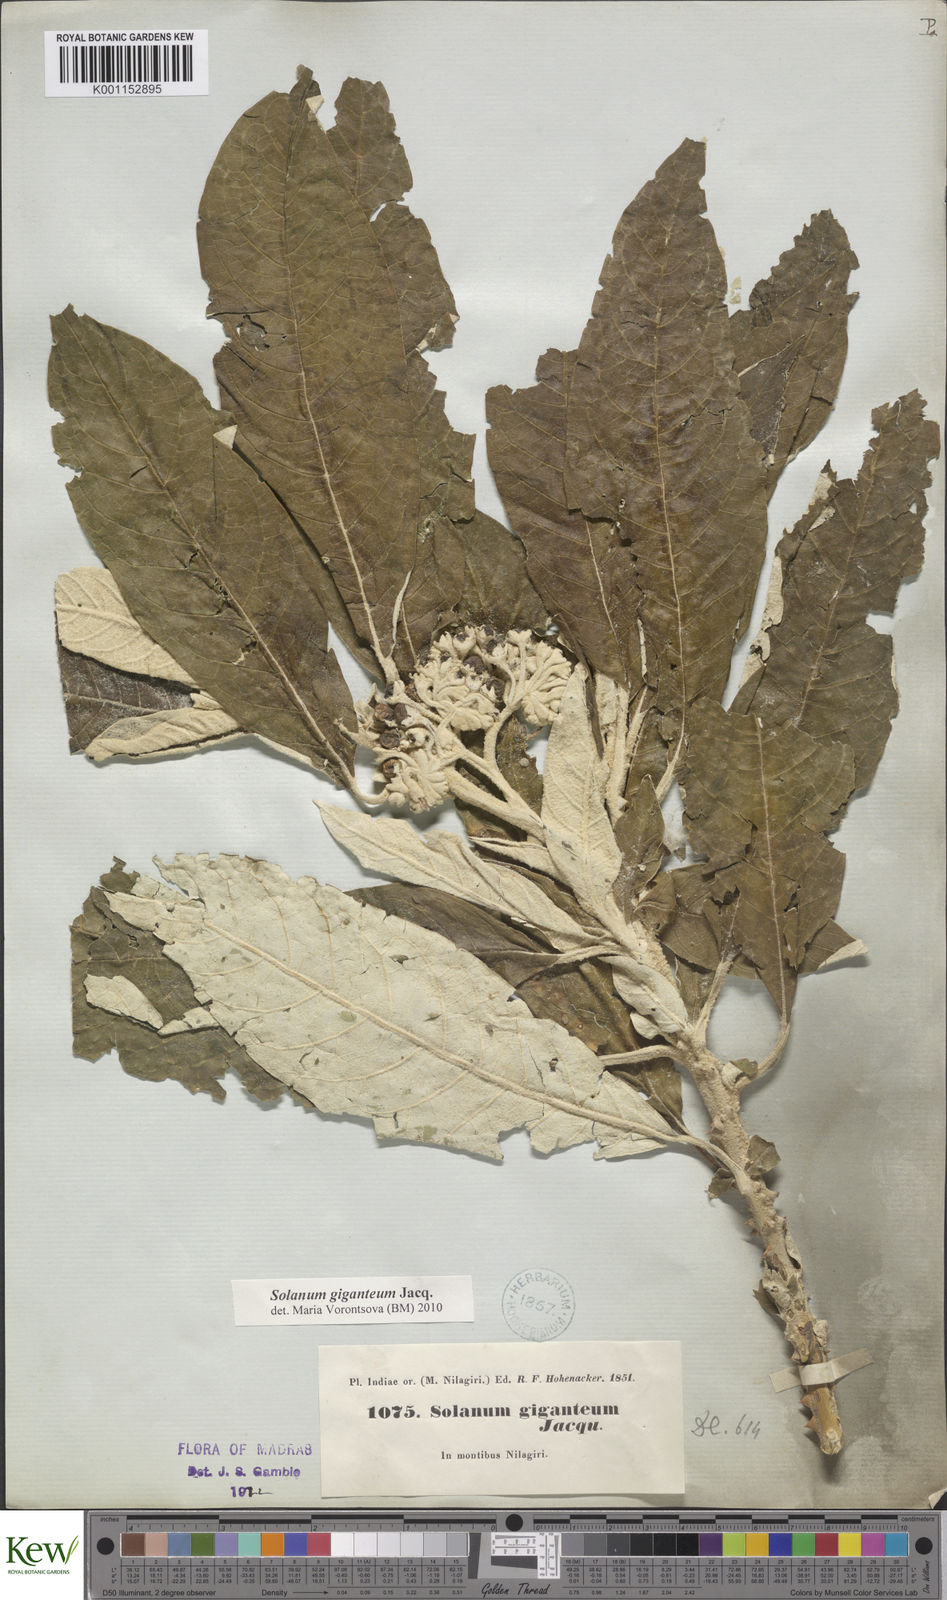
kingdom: Plantae
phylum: Tracheophyta
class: Magnoliopsida
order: Solanales
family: Solanaceae
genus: Solanum
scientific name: Solanum giganteum
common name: Healing-leaf-tree
